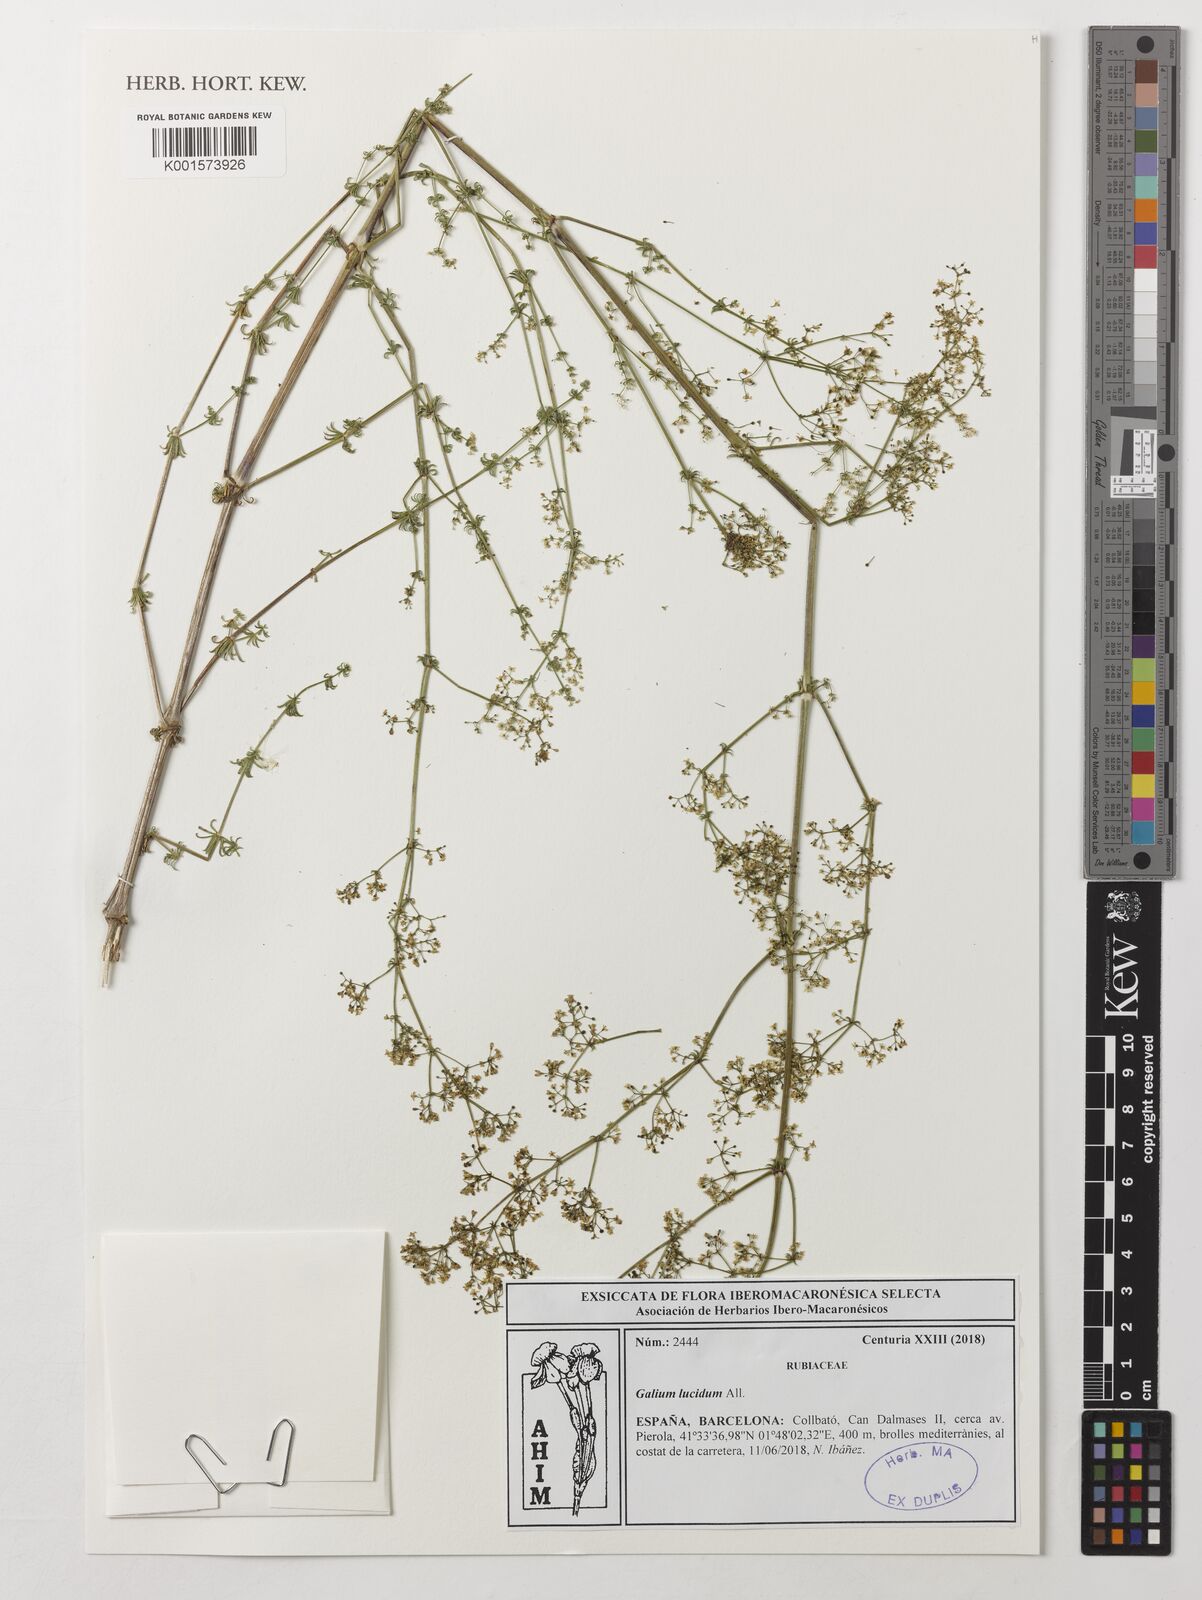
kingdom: Plantae
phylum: Tracheophyta
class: Magnoliopsida
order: Gentianales
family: Rubiaceae
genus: Galium
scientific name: Galium lucidum
